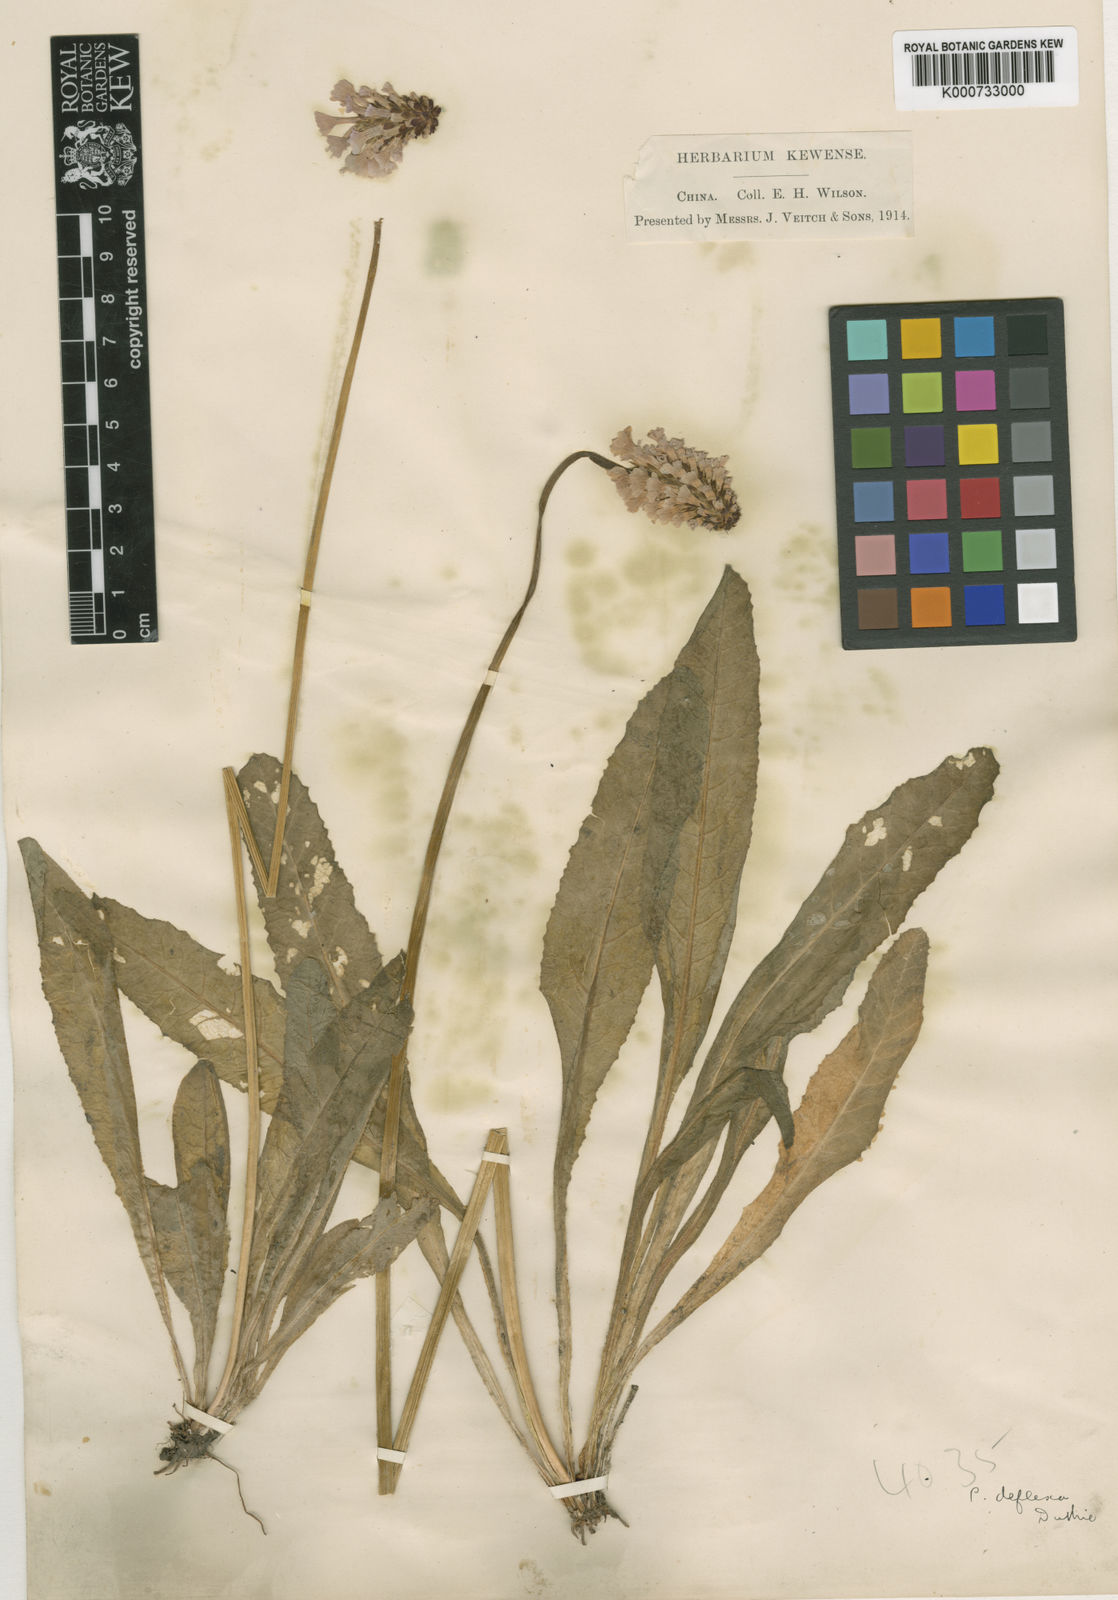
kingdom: Plantae
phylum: Tracheophyta
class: Magnoliopsida
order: Ericales
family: Primulaceae
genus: Primula
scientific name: Primula gracilenta
